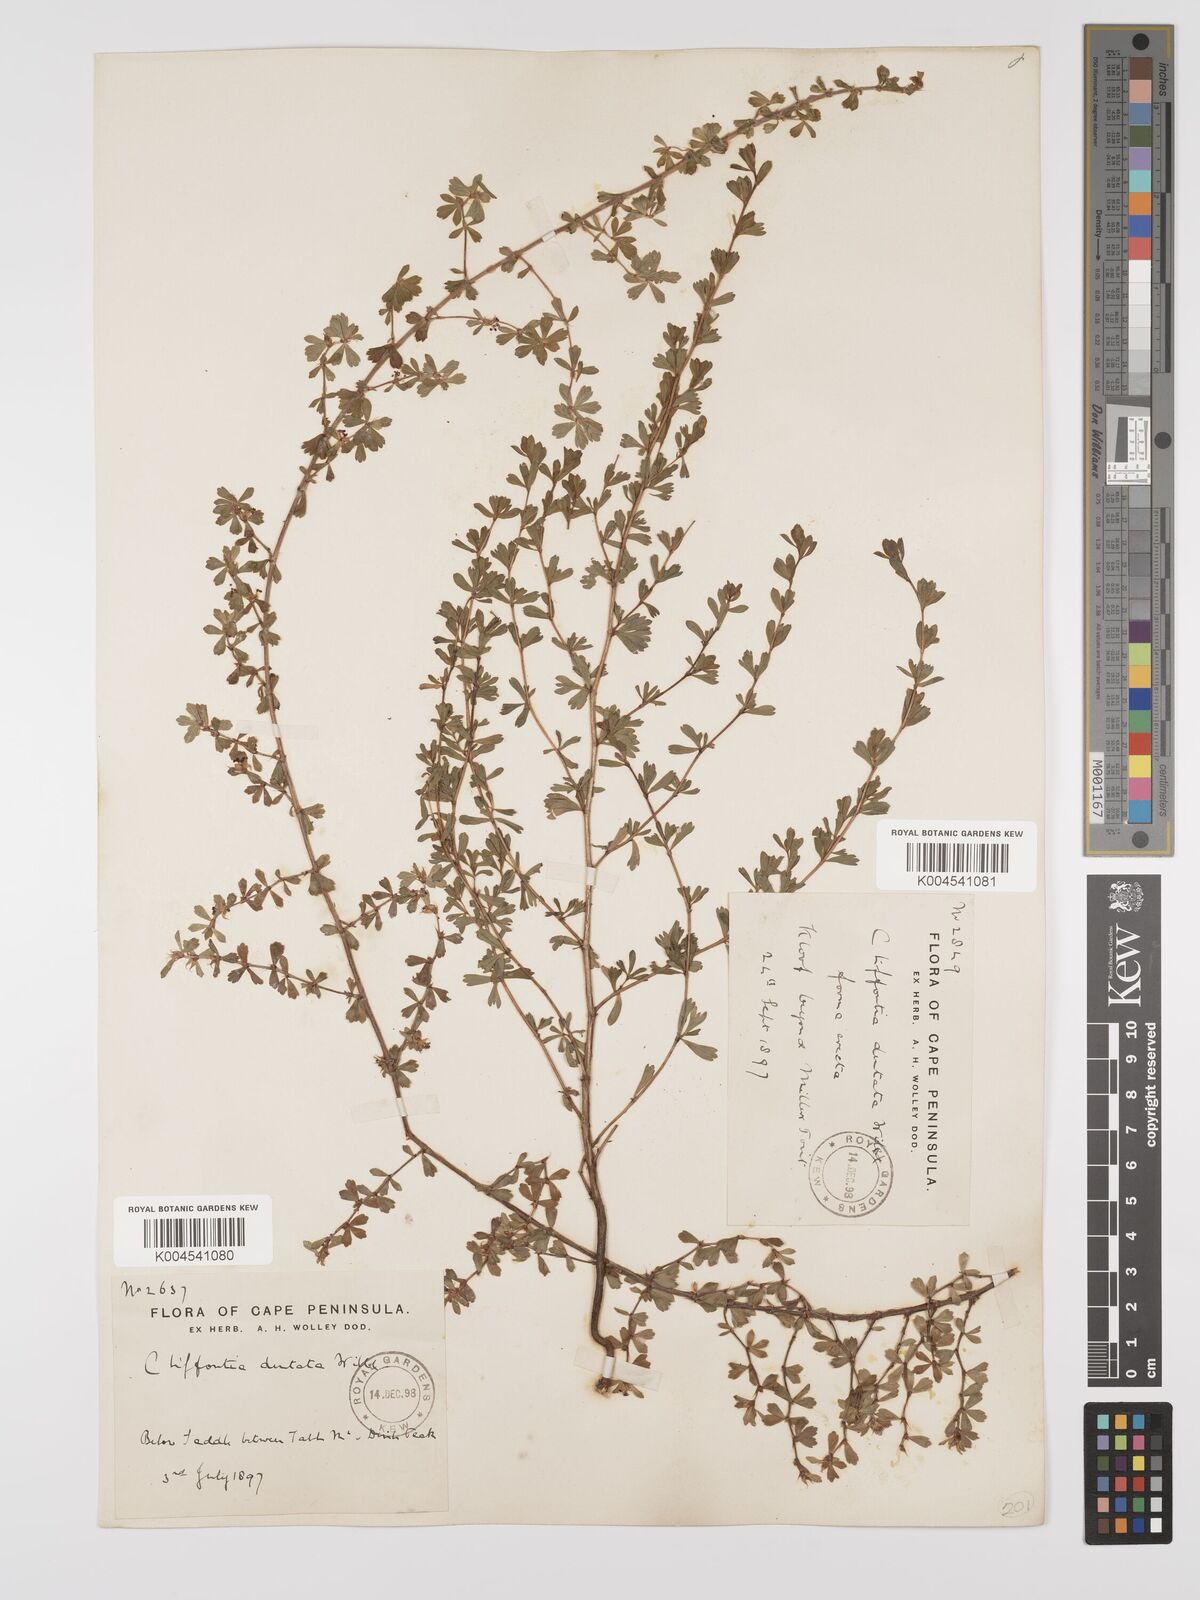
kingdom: Plantae
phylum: Tracheophyta
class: Magnoliopsida
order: Rosales
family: Rosaceae
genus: Cliffortia
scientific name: Cliffortia
